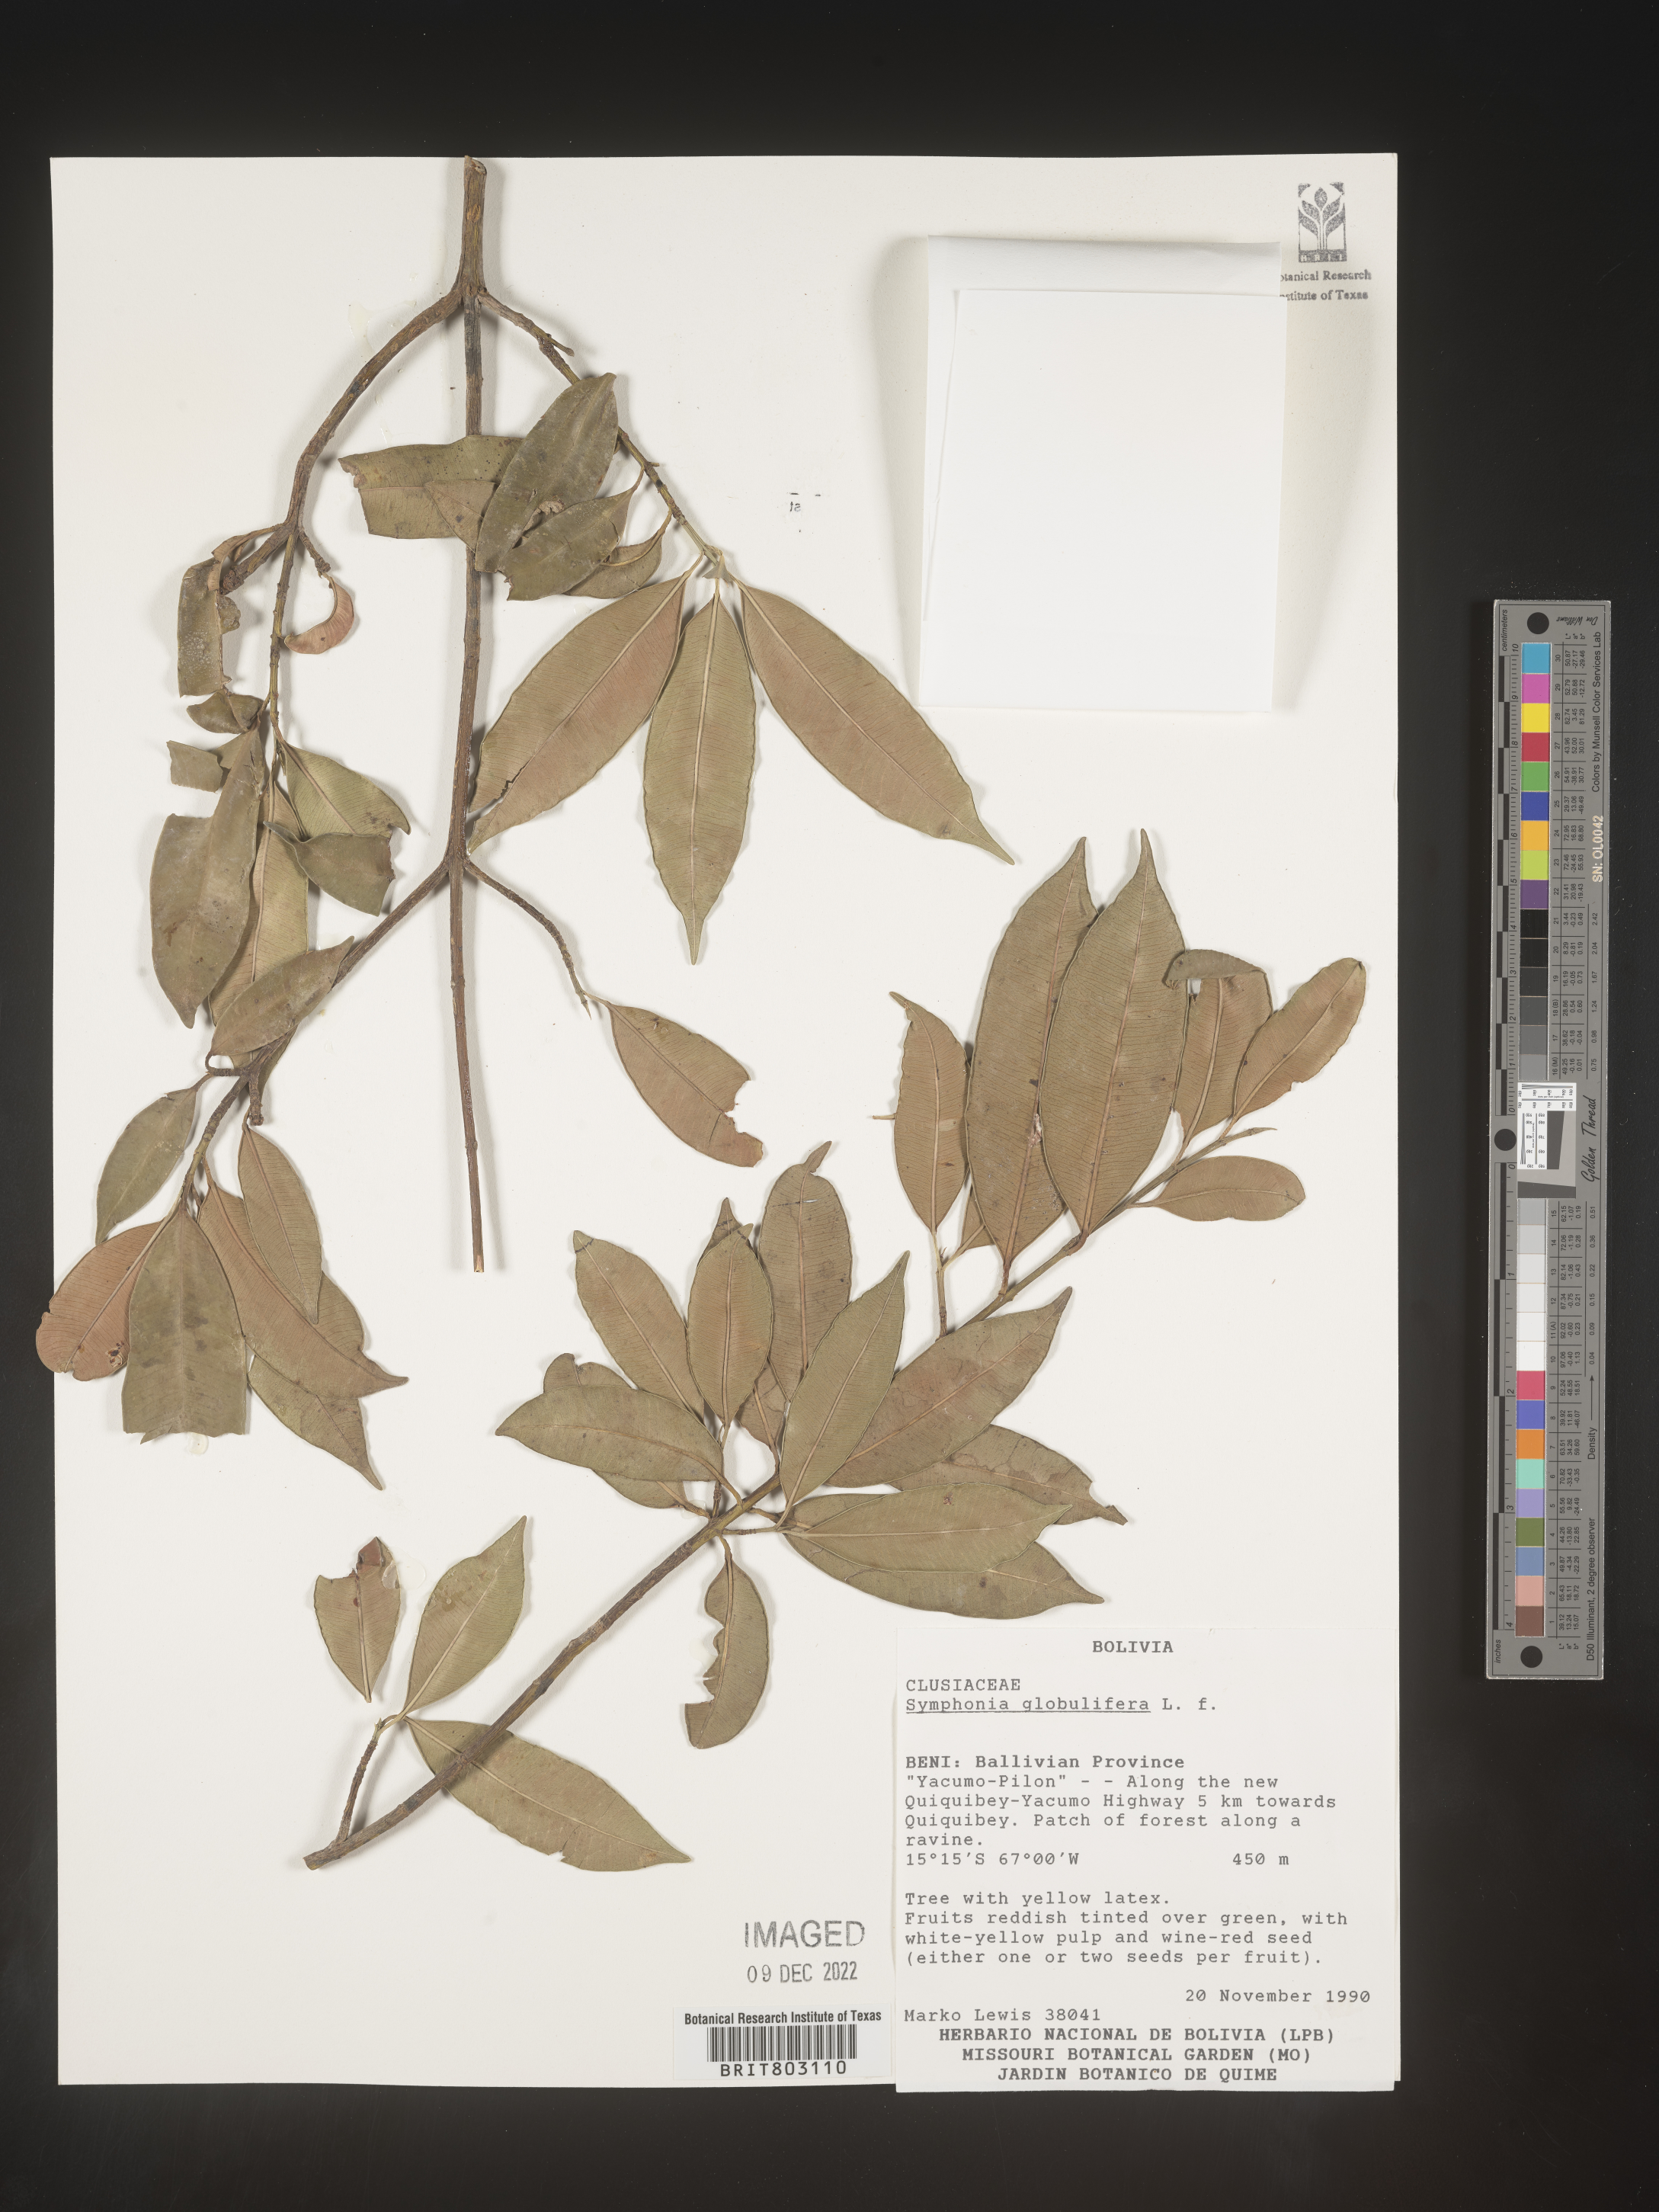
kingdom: Plantae
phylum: Tracheophyta
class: Magnoliopsida
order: Malpighiales
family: Clusiaceae
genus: Symphonia
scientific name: Symphonia
